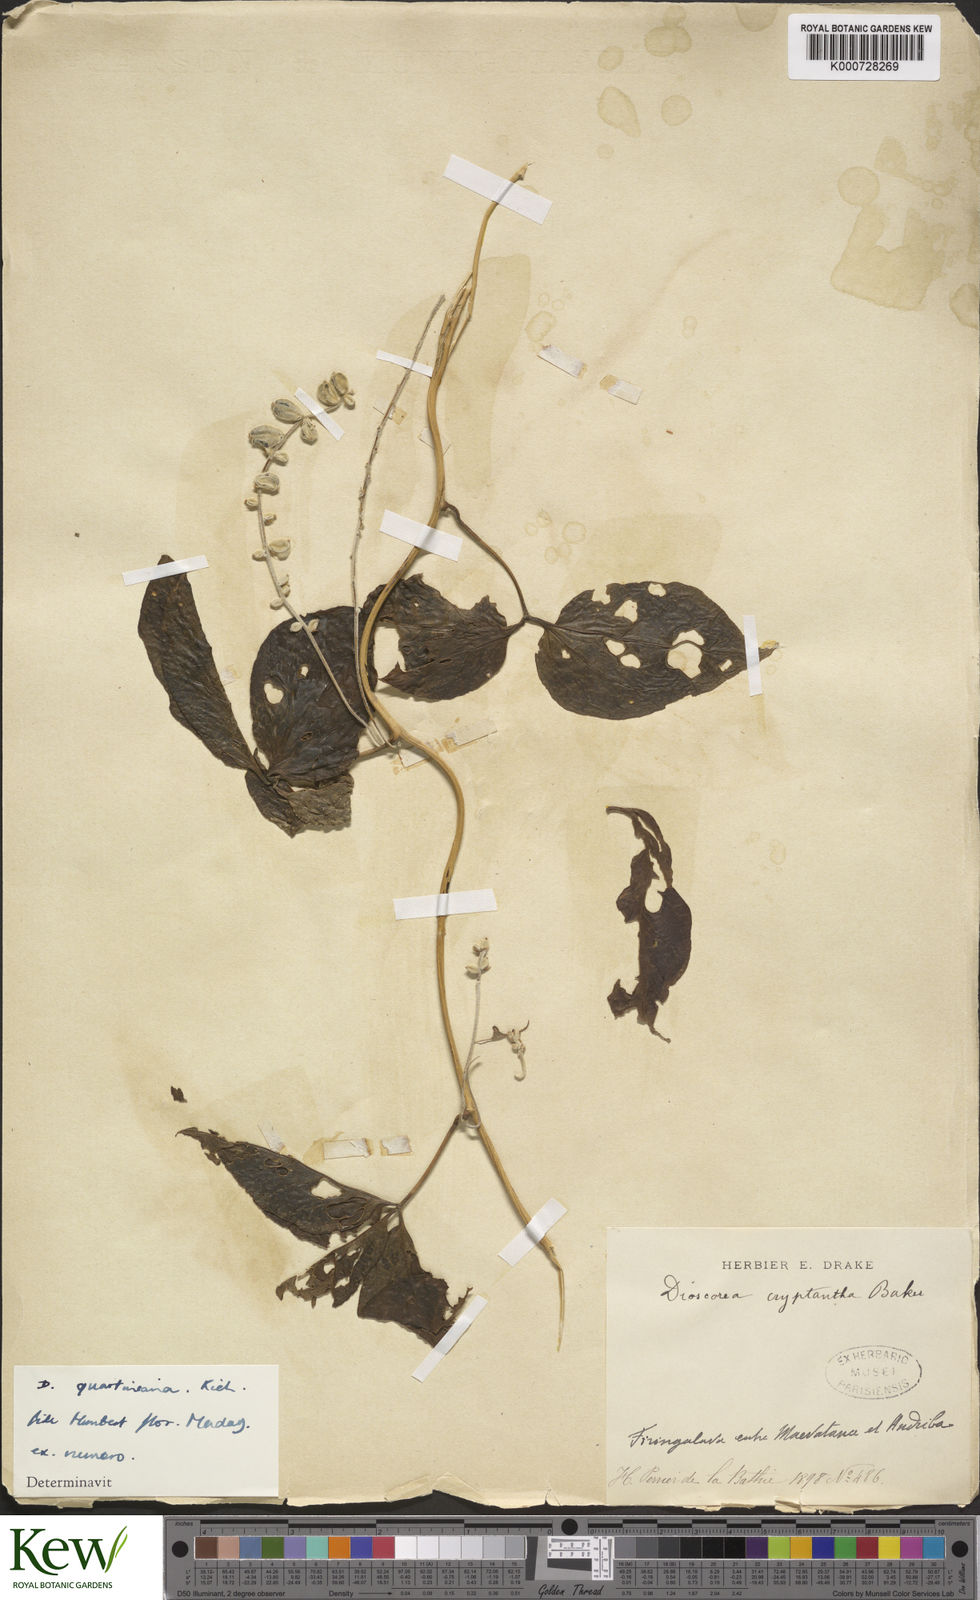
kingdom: Plantae
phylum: Tracheophyta
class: Liliopsida
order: Dioscoreales
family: Dioscoreaceae
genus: Dioscorea
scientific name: Dioscorea quartiniana
